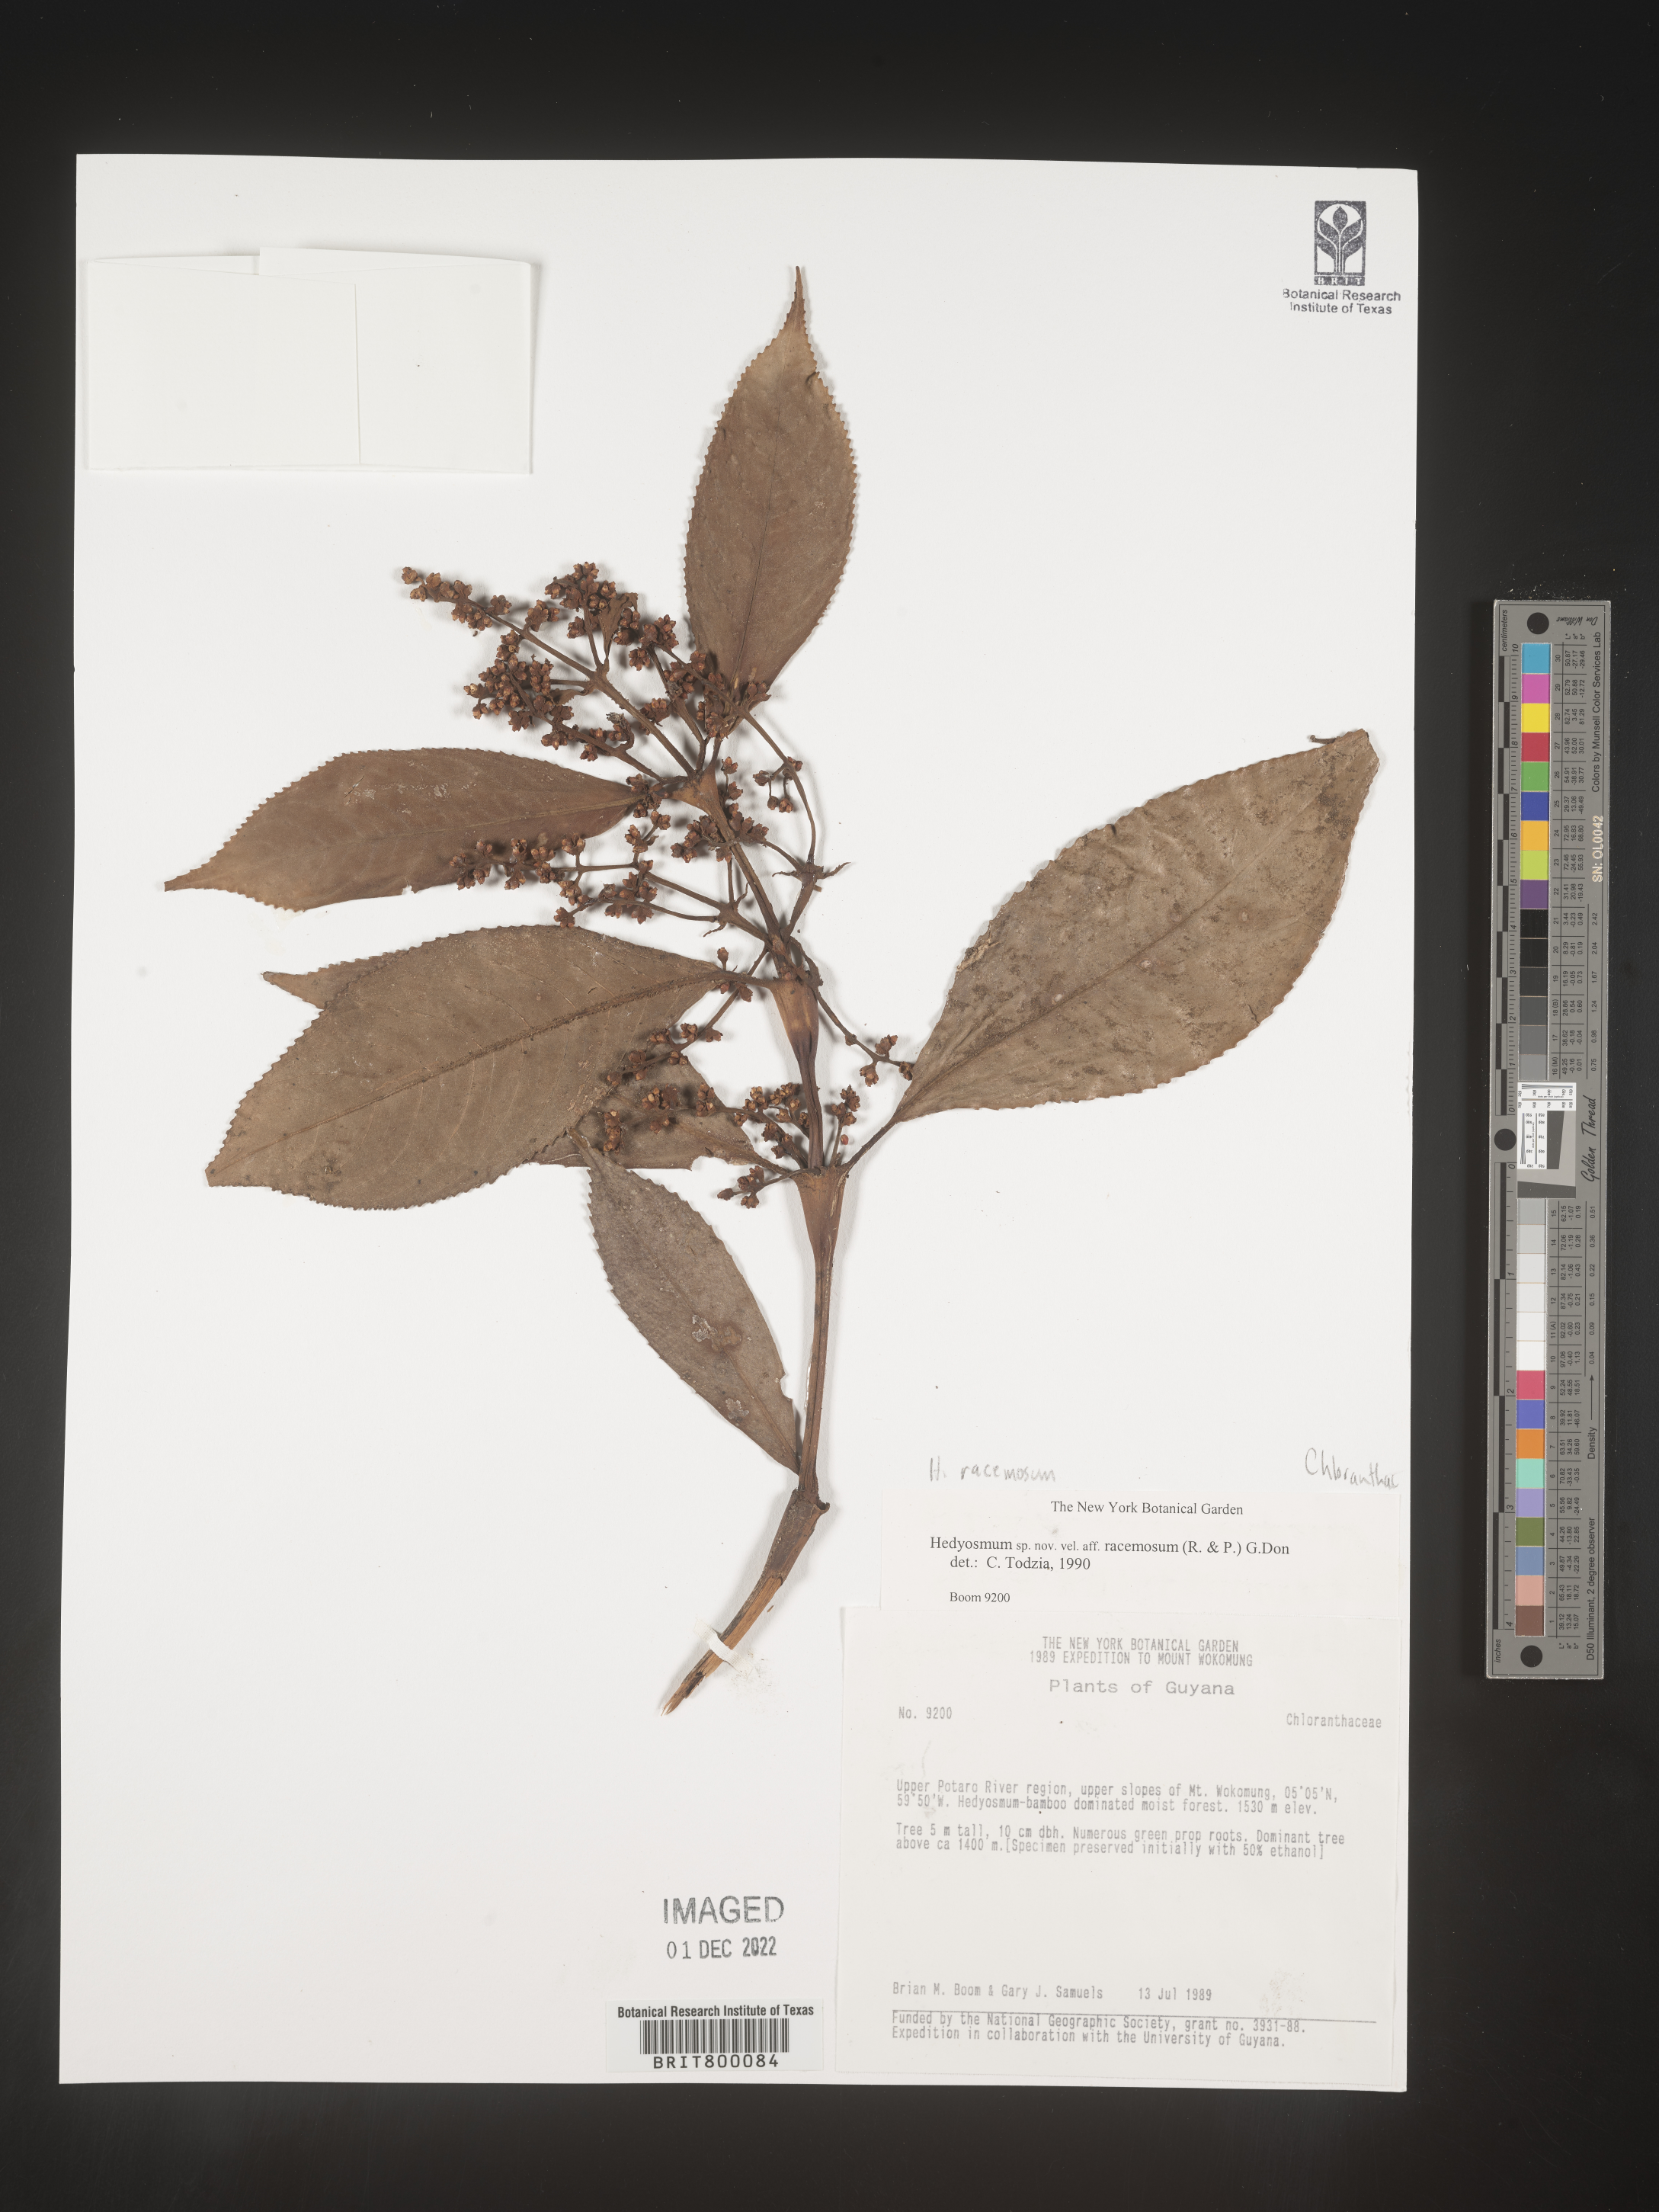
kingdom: Plantae
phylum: Tracheophyta
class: Magnoliopsida
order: Chloranthales
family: Chloranthaceae
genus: Hedyosmum
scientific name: Hedyosmum
